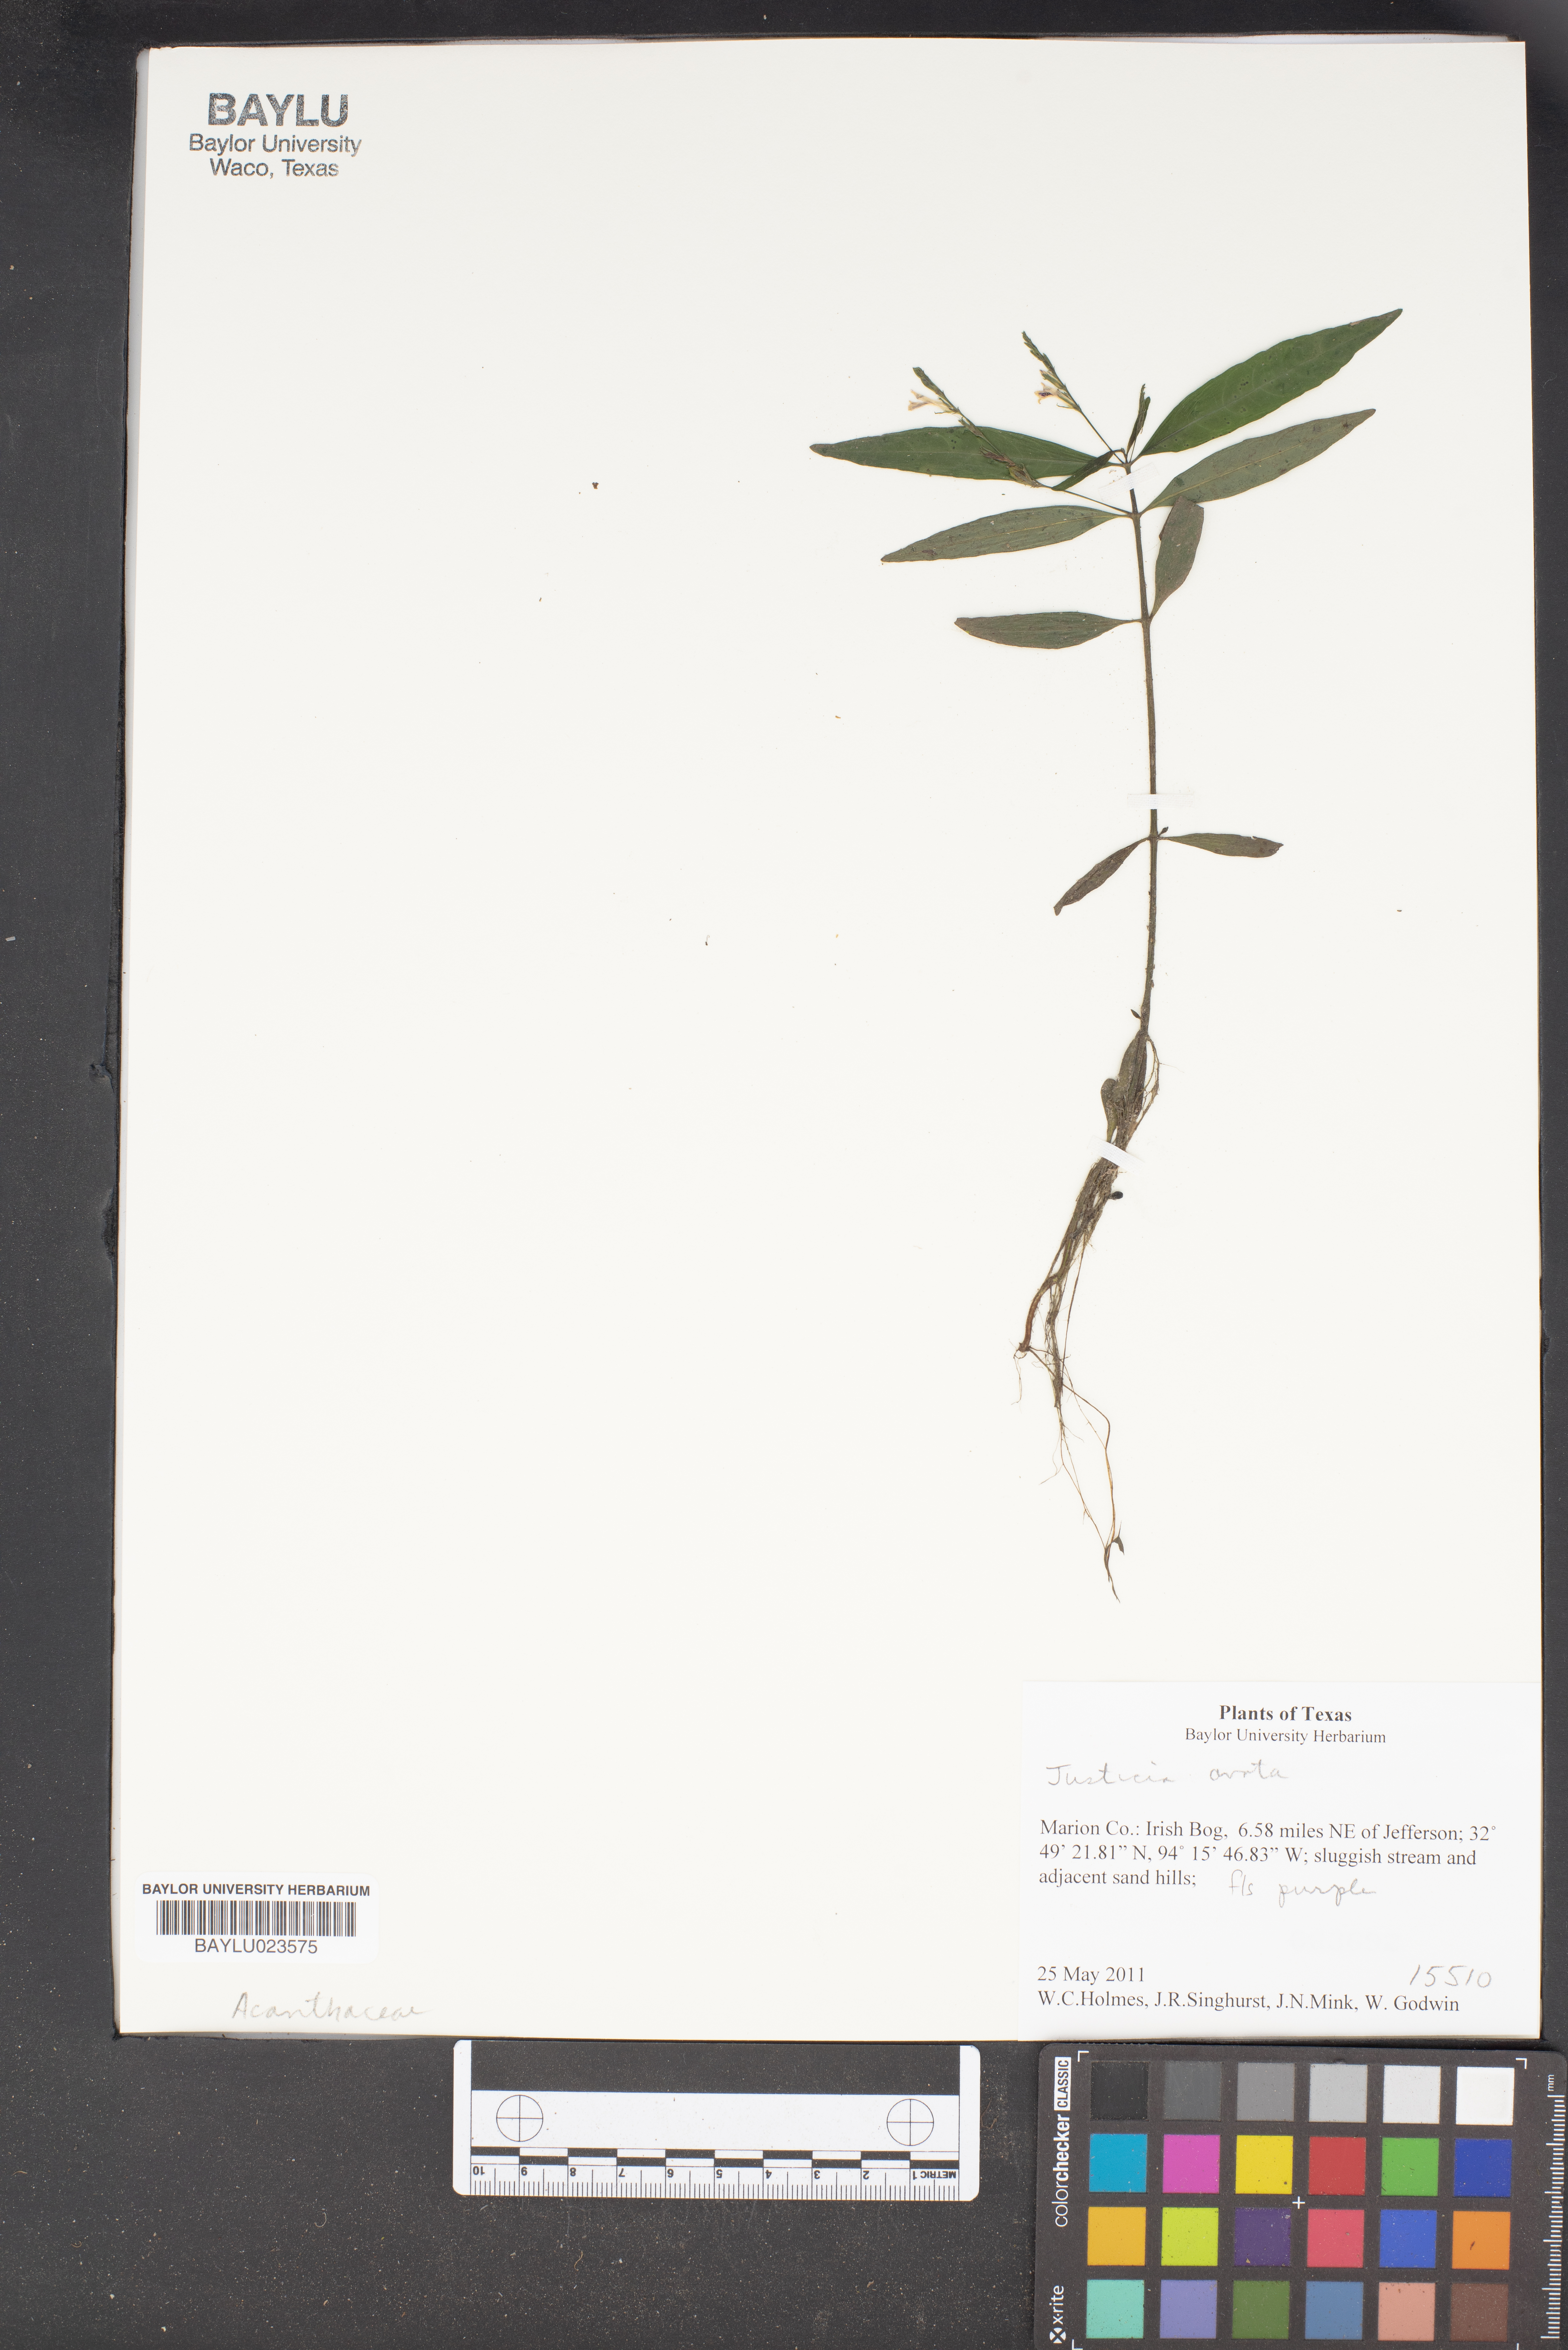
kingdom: Plantae
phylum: Tracheophyta
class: Magnoliopsida
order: Lamiales
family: Acanthaceae
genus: Justicia
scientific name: Justicia
